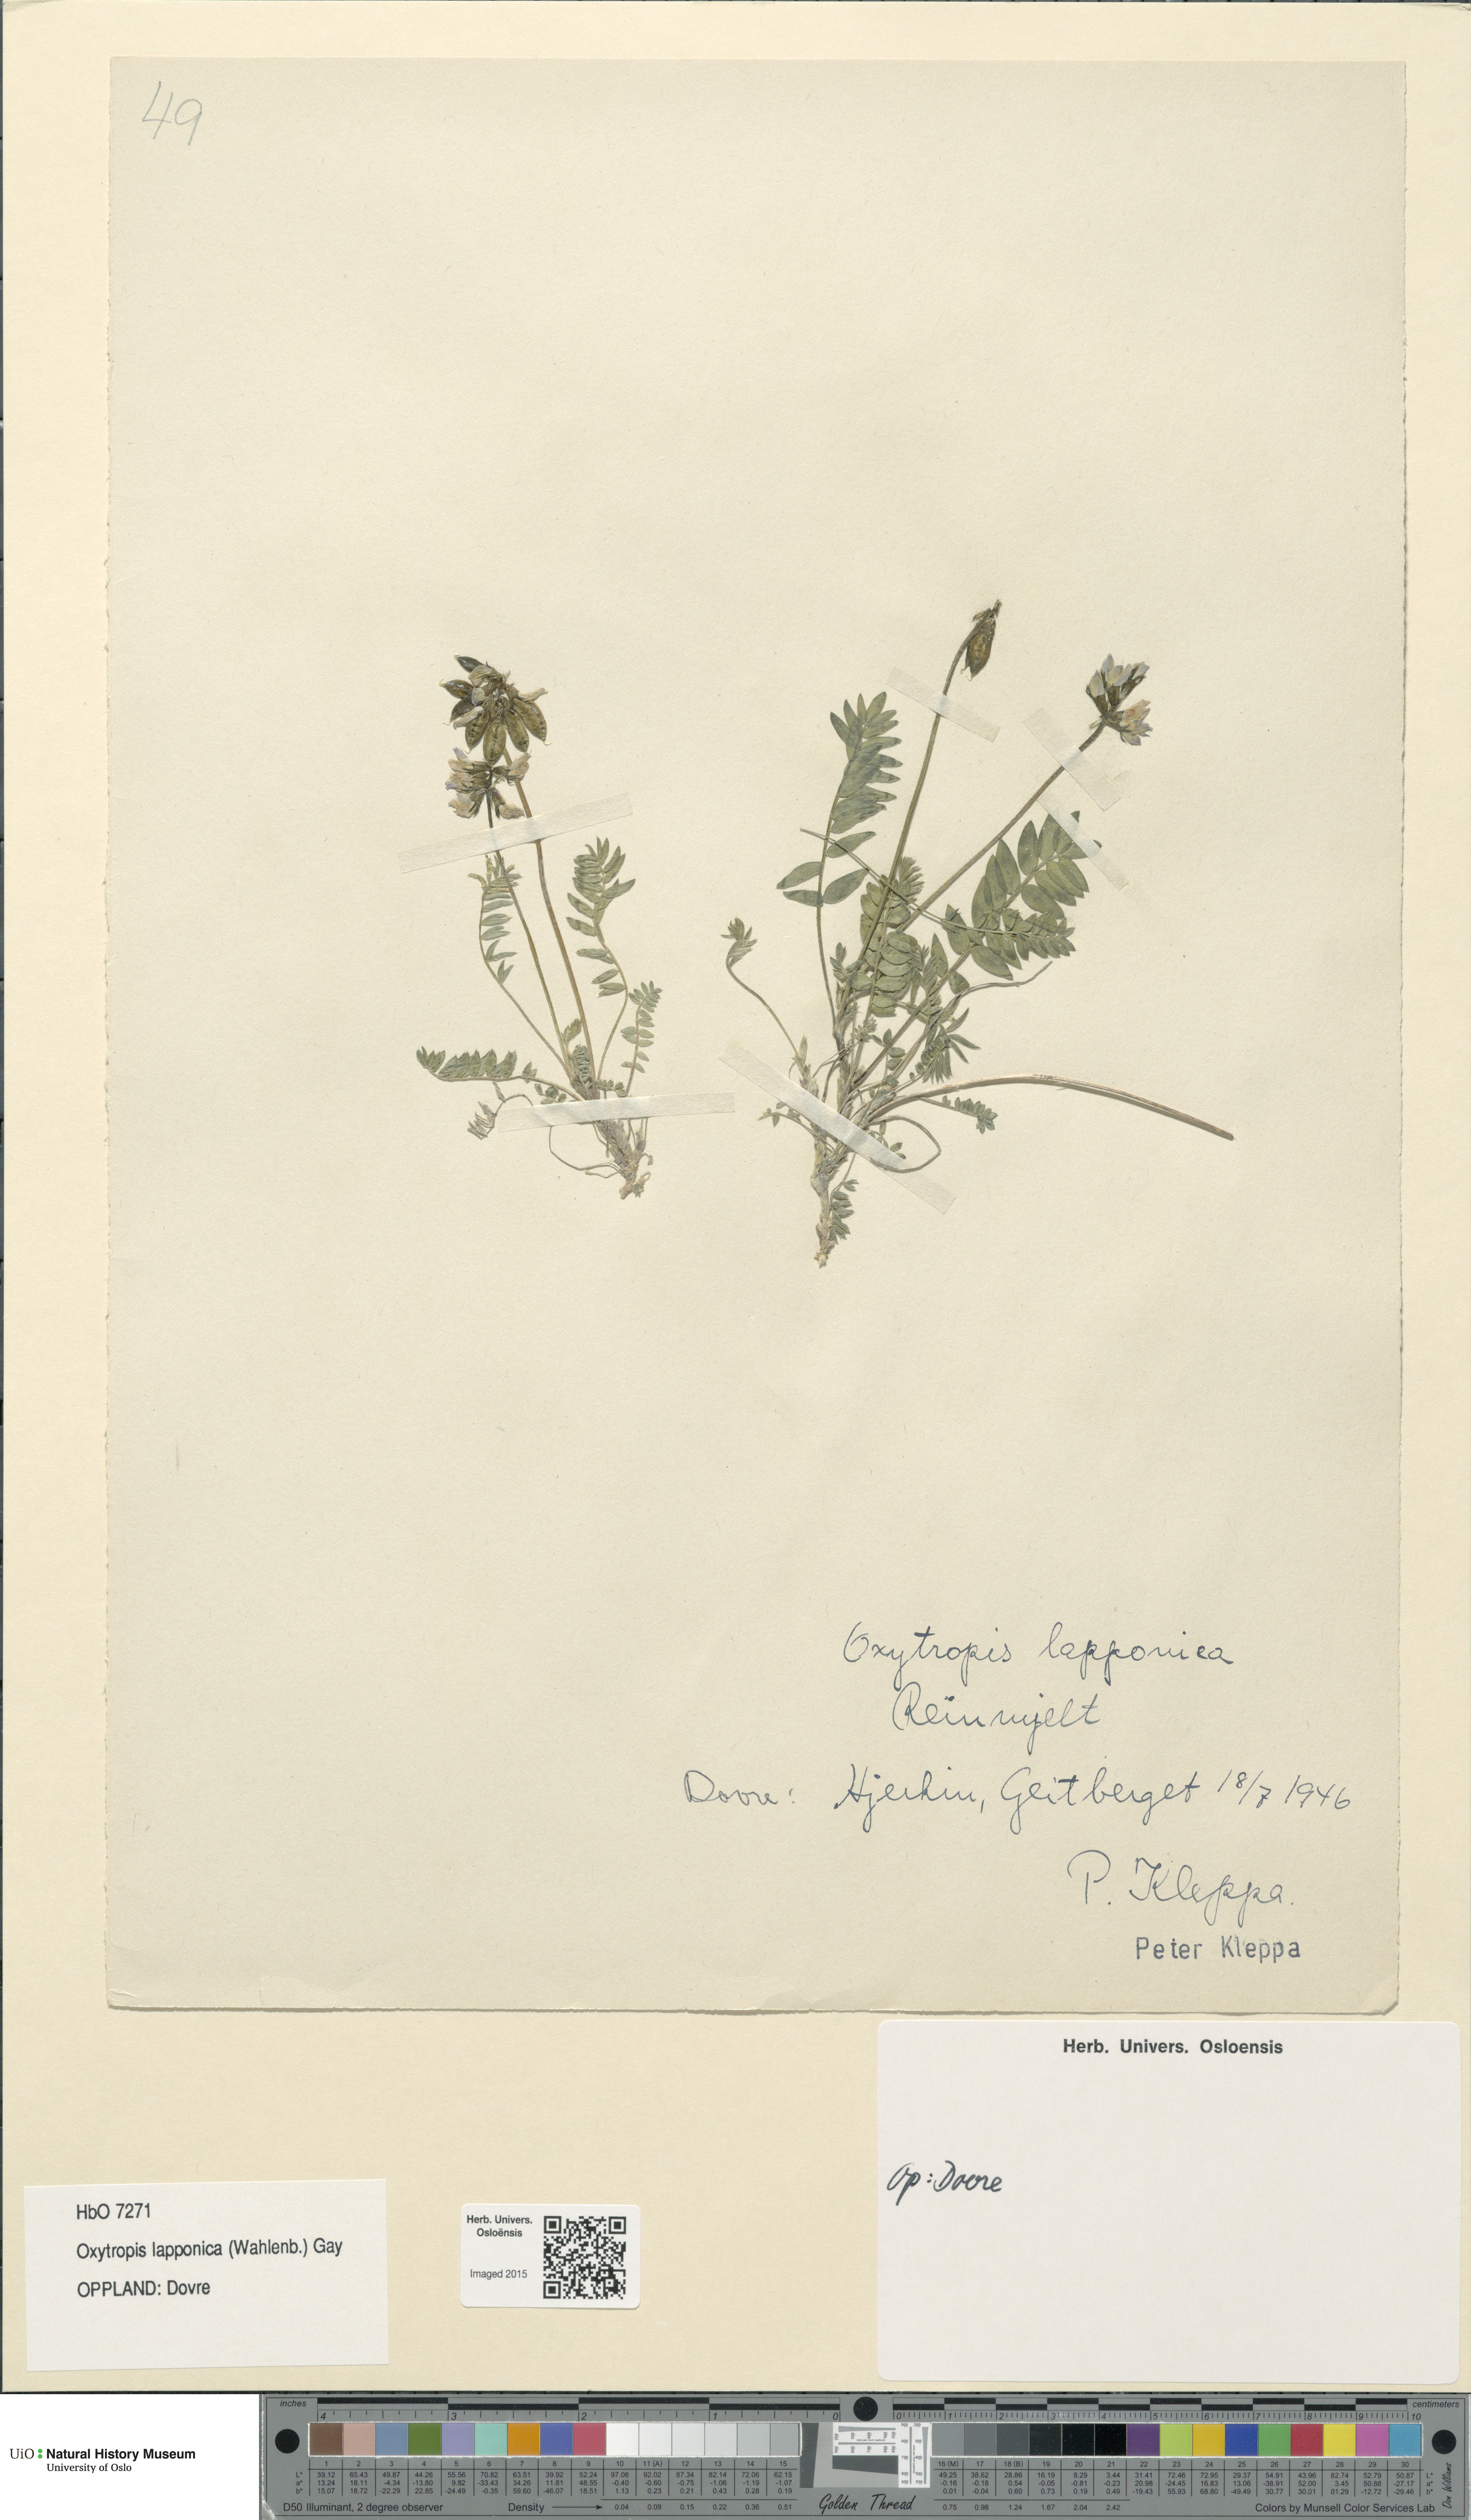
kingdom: Plantae
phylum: Tracheophyta
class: Magnoliopsida
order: Fabales
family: Fabaceae
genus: Oxytropis
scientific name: Oxytropis lapponica
